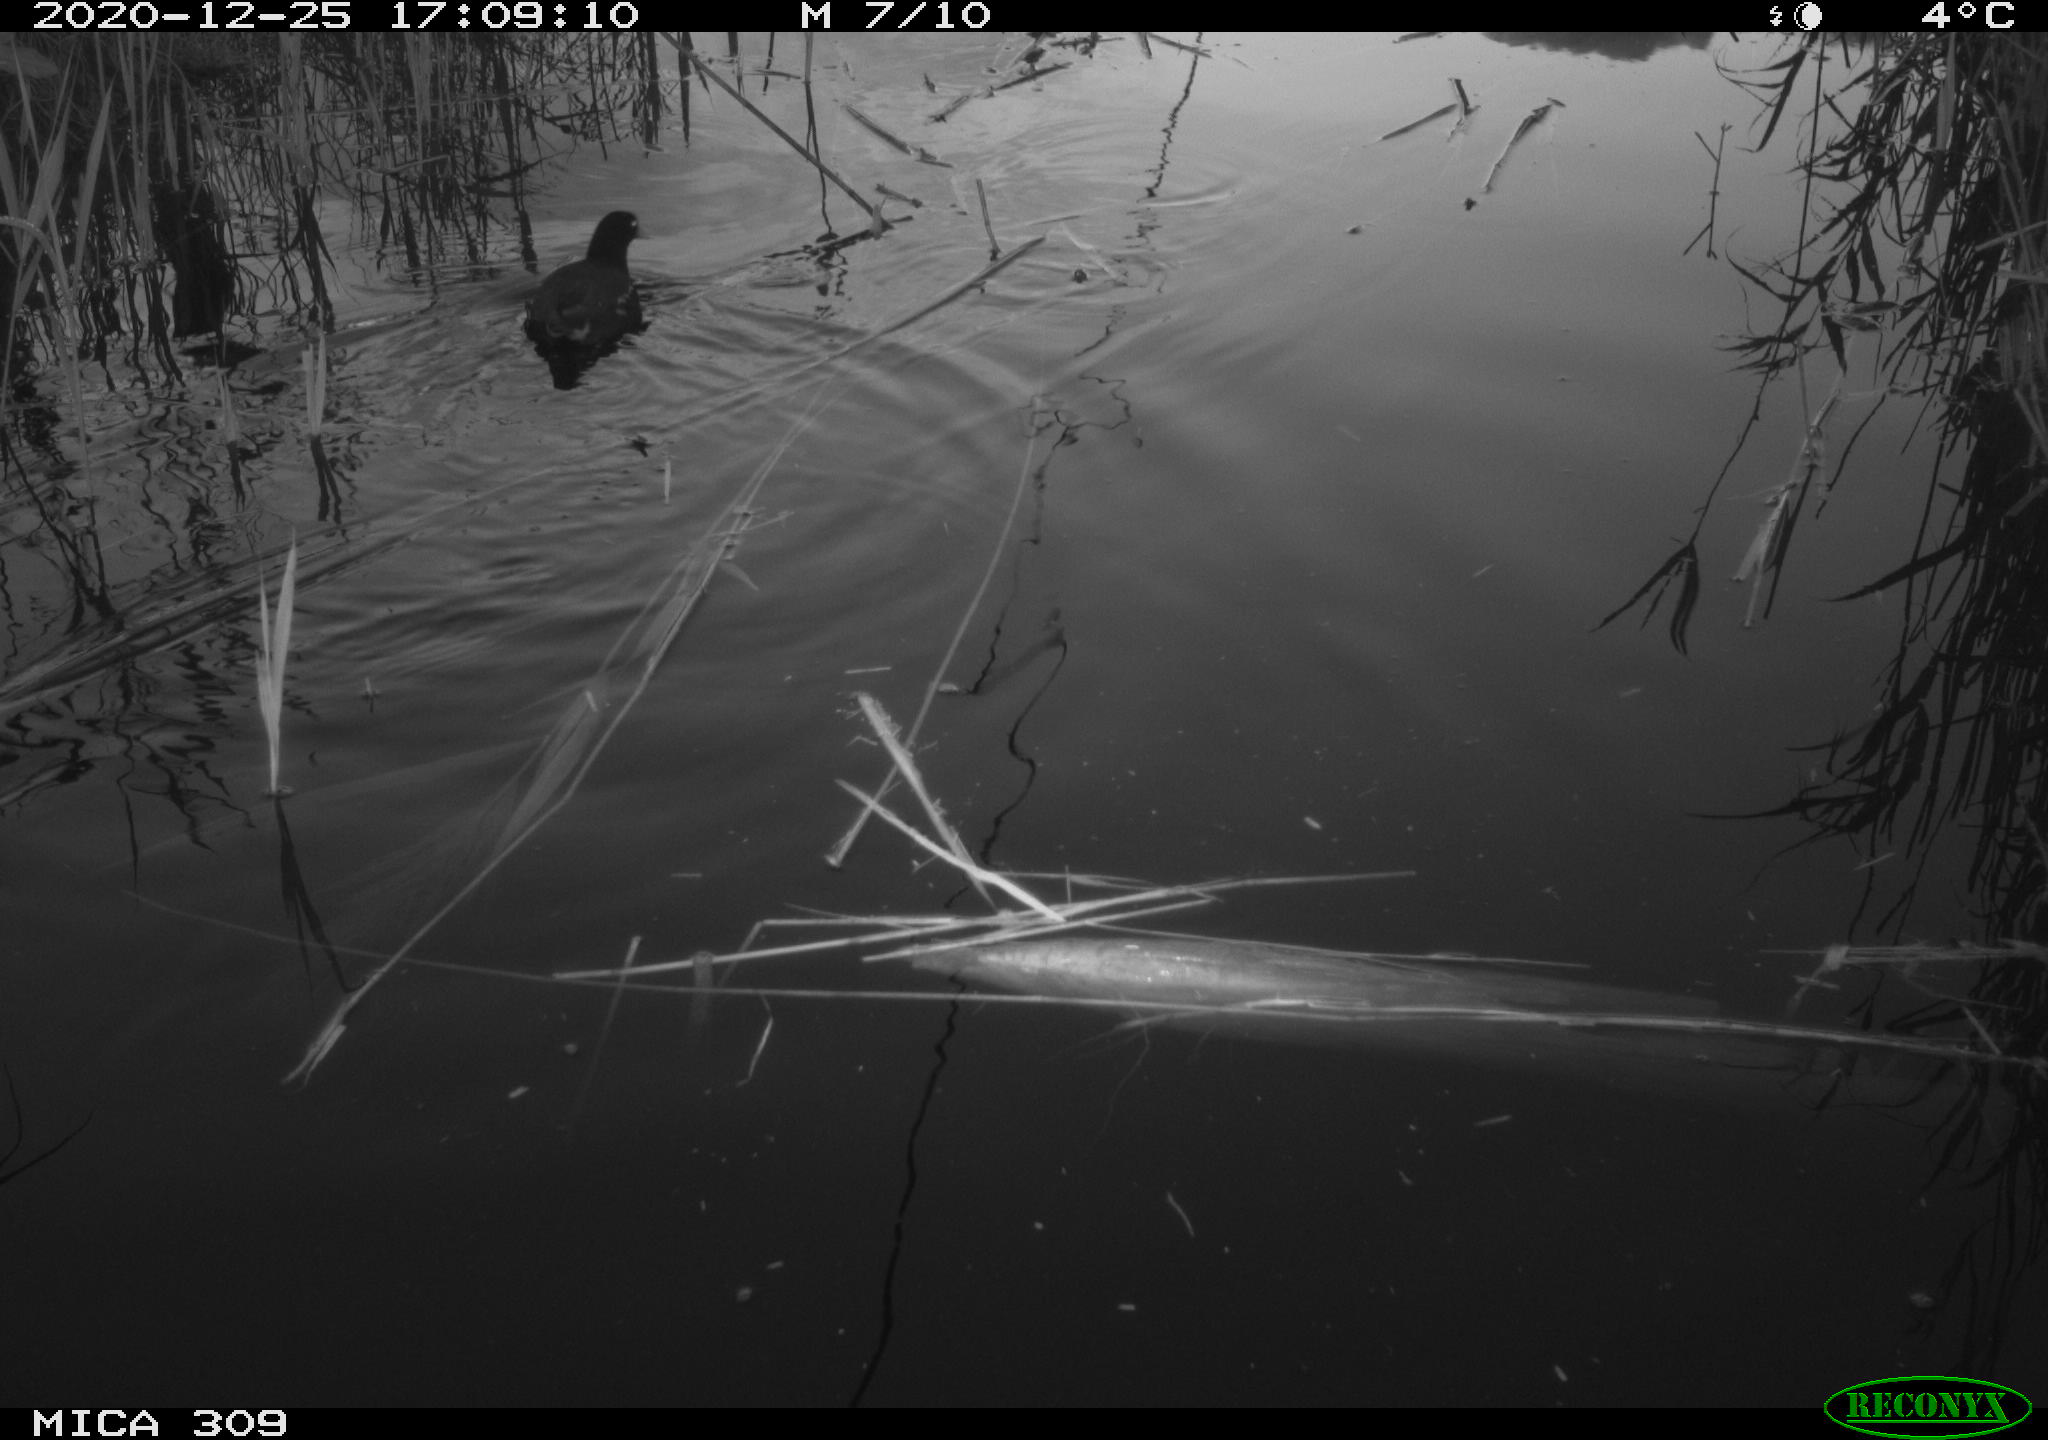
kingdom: Animalia
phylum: Chordata
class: Aves
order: Gruiformes
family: Rallidae
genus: Gallinula
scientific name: Gallinula chloropus
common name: Common moorhen
